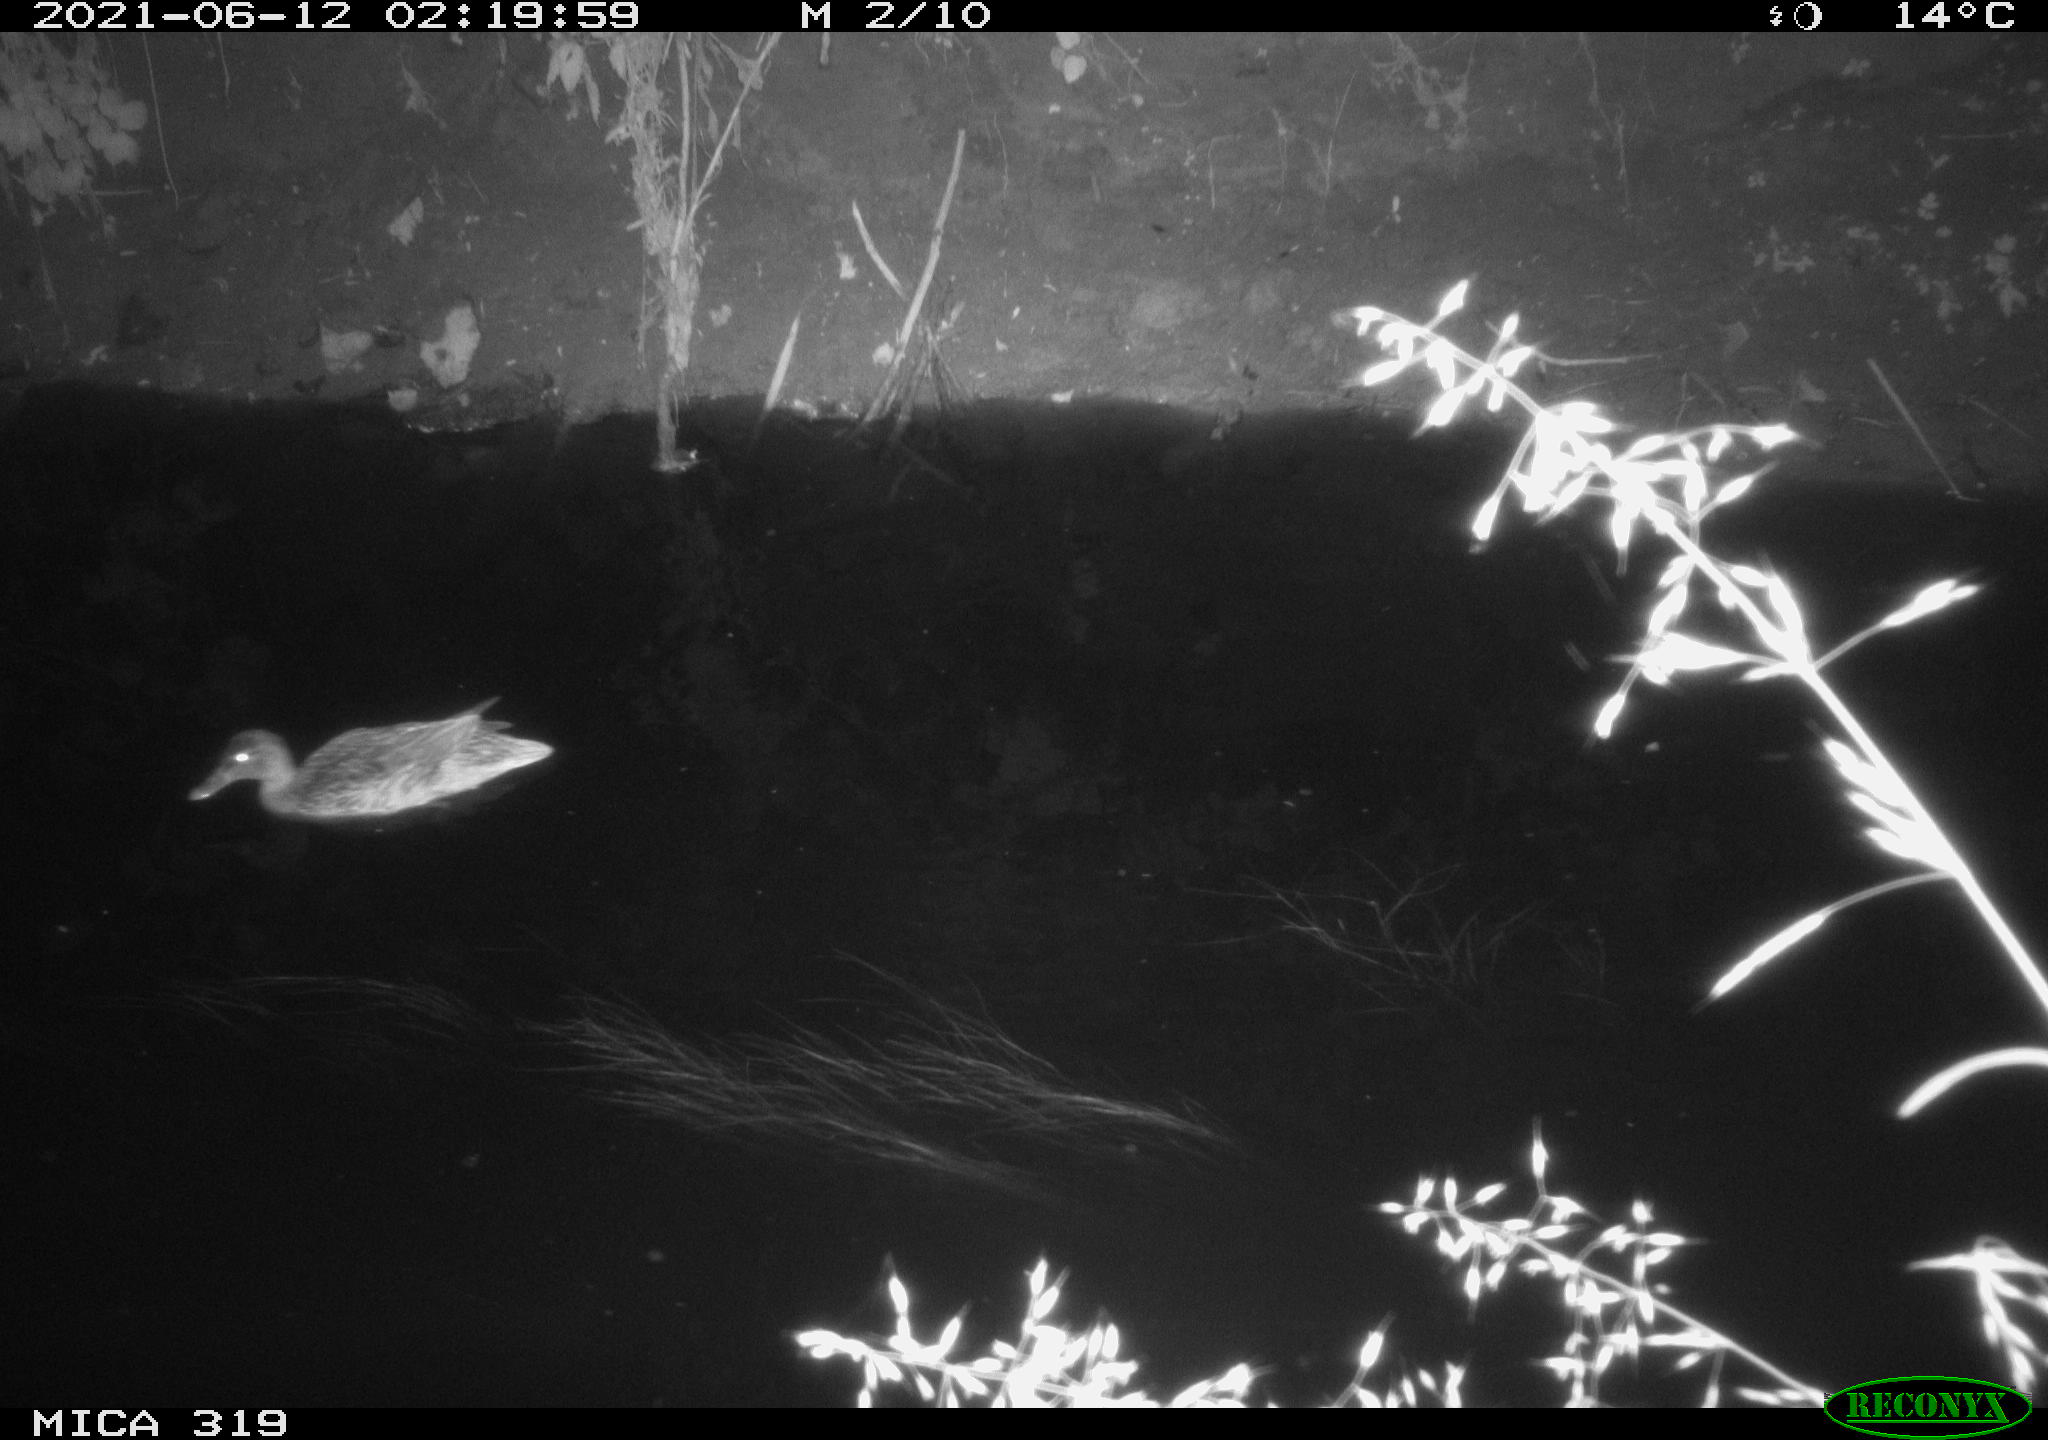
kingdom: Animalia
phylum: Chordata
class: Aves
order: Anseriformes
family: Anatidae
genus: Anas
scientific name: Anas platyrhynchos
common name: Mallard
